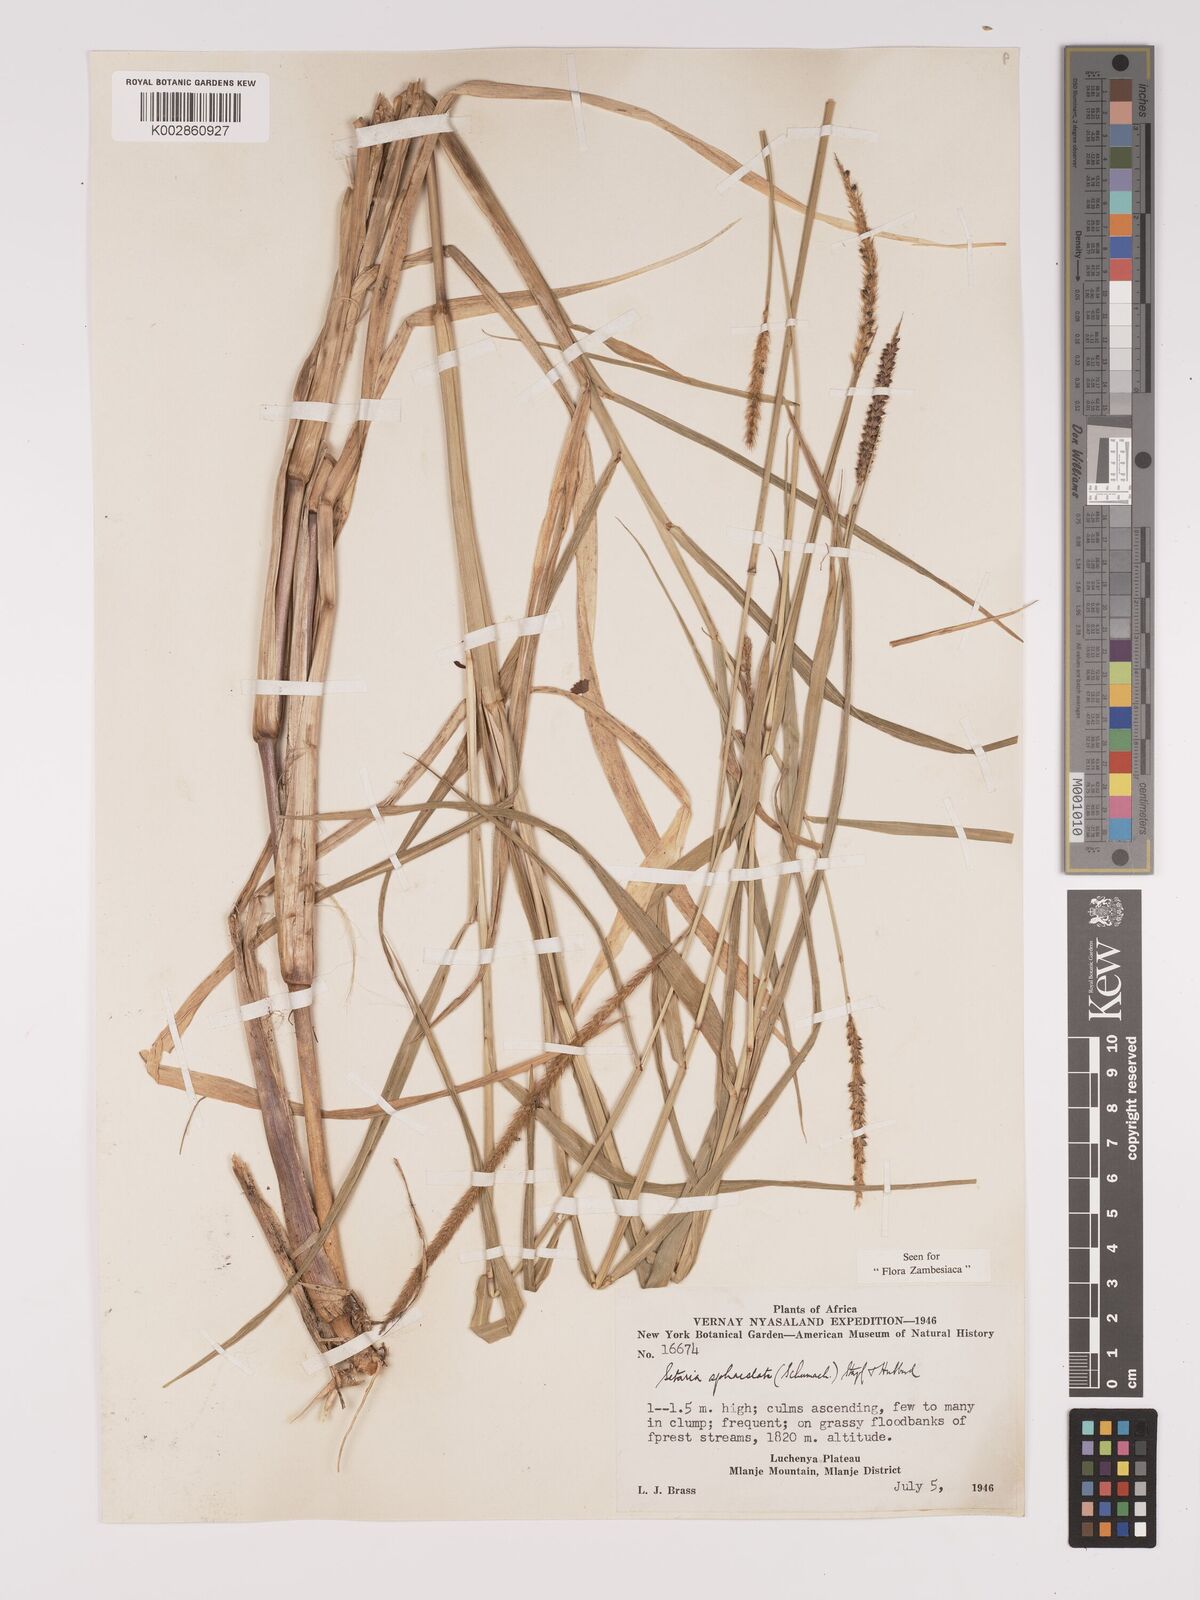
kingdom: Plantae
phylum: Tracheophyta
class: Liliopsida
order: Poales
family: Poaceae
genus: Setaria
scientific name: Setaria sphacelata
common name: African bristlegrass
